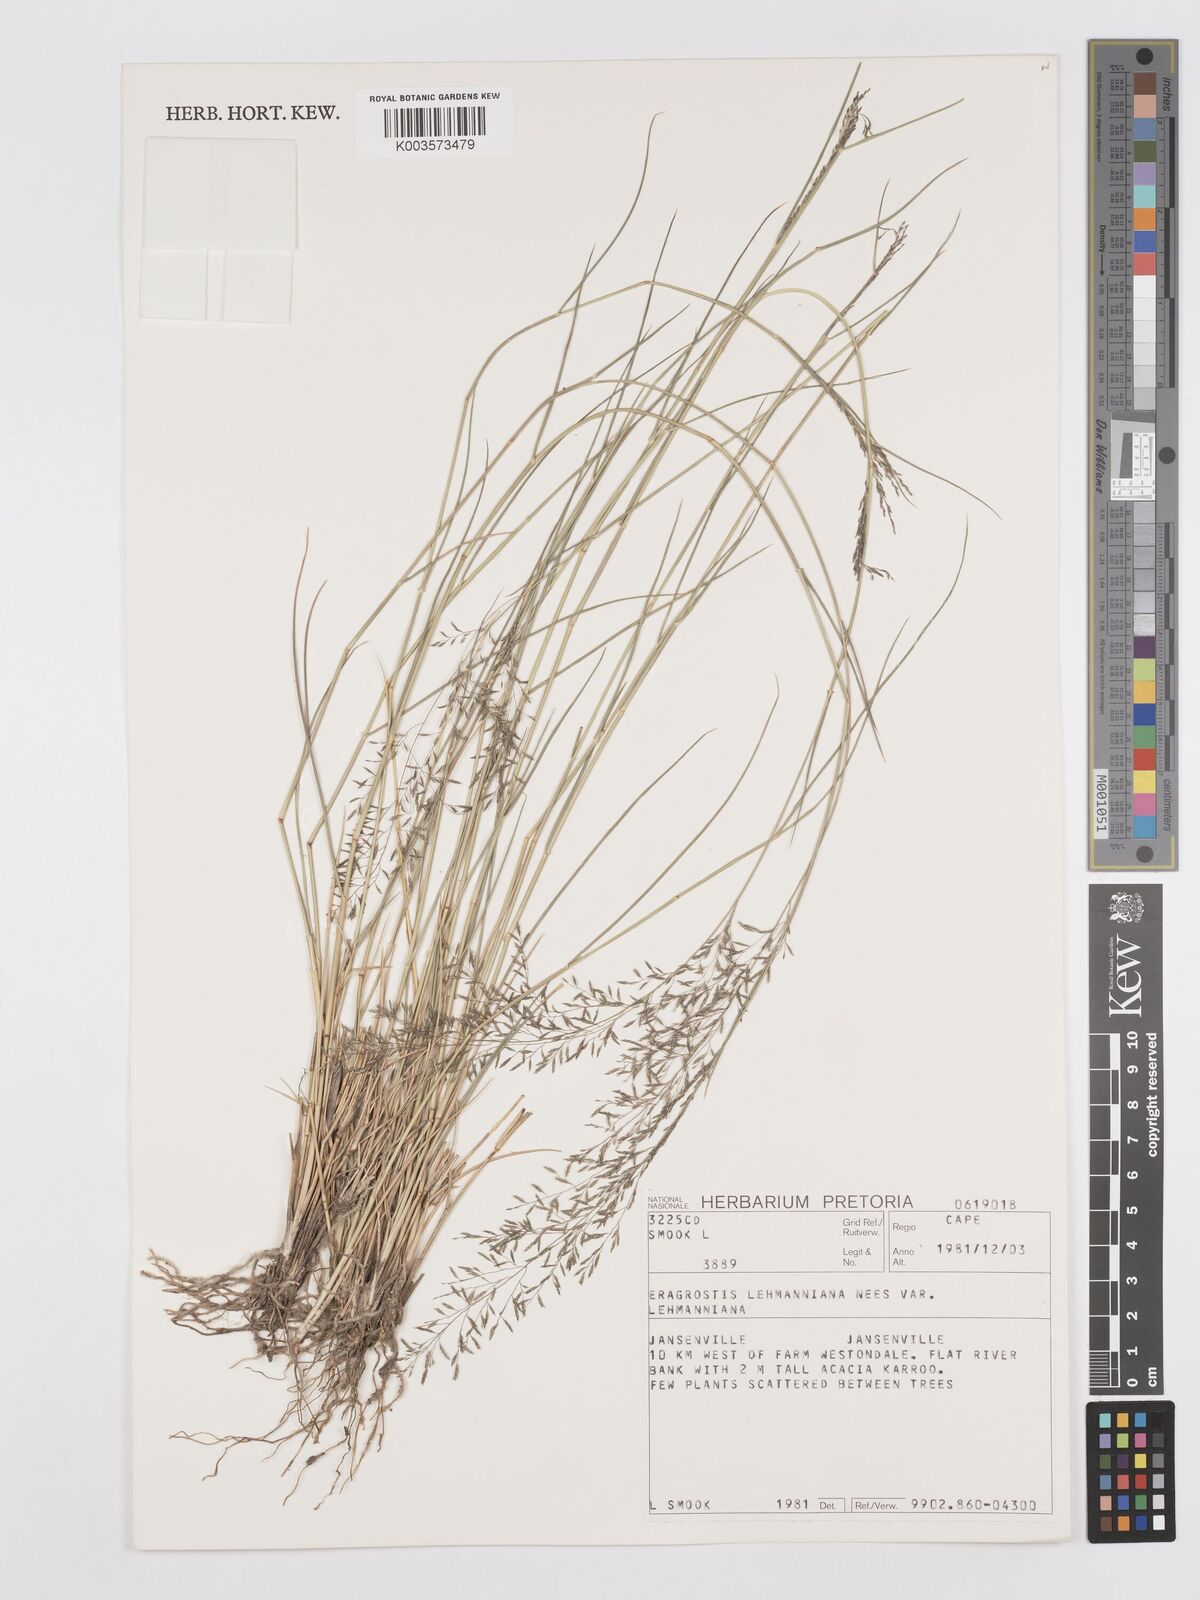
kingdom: Plantae
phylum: Tracheophyta
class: Liliopsida
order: Poales
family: Poaceae
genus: Eragrostis
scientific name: Eragrostis lehmanniana
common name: Lehmann lovegrass
